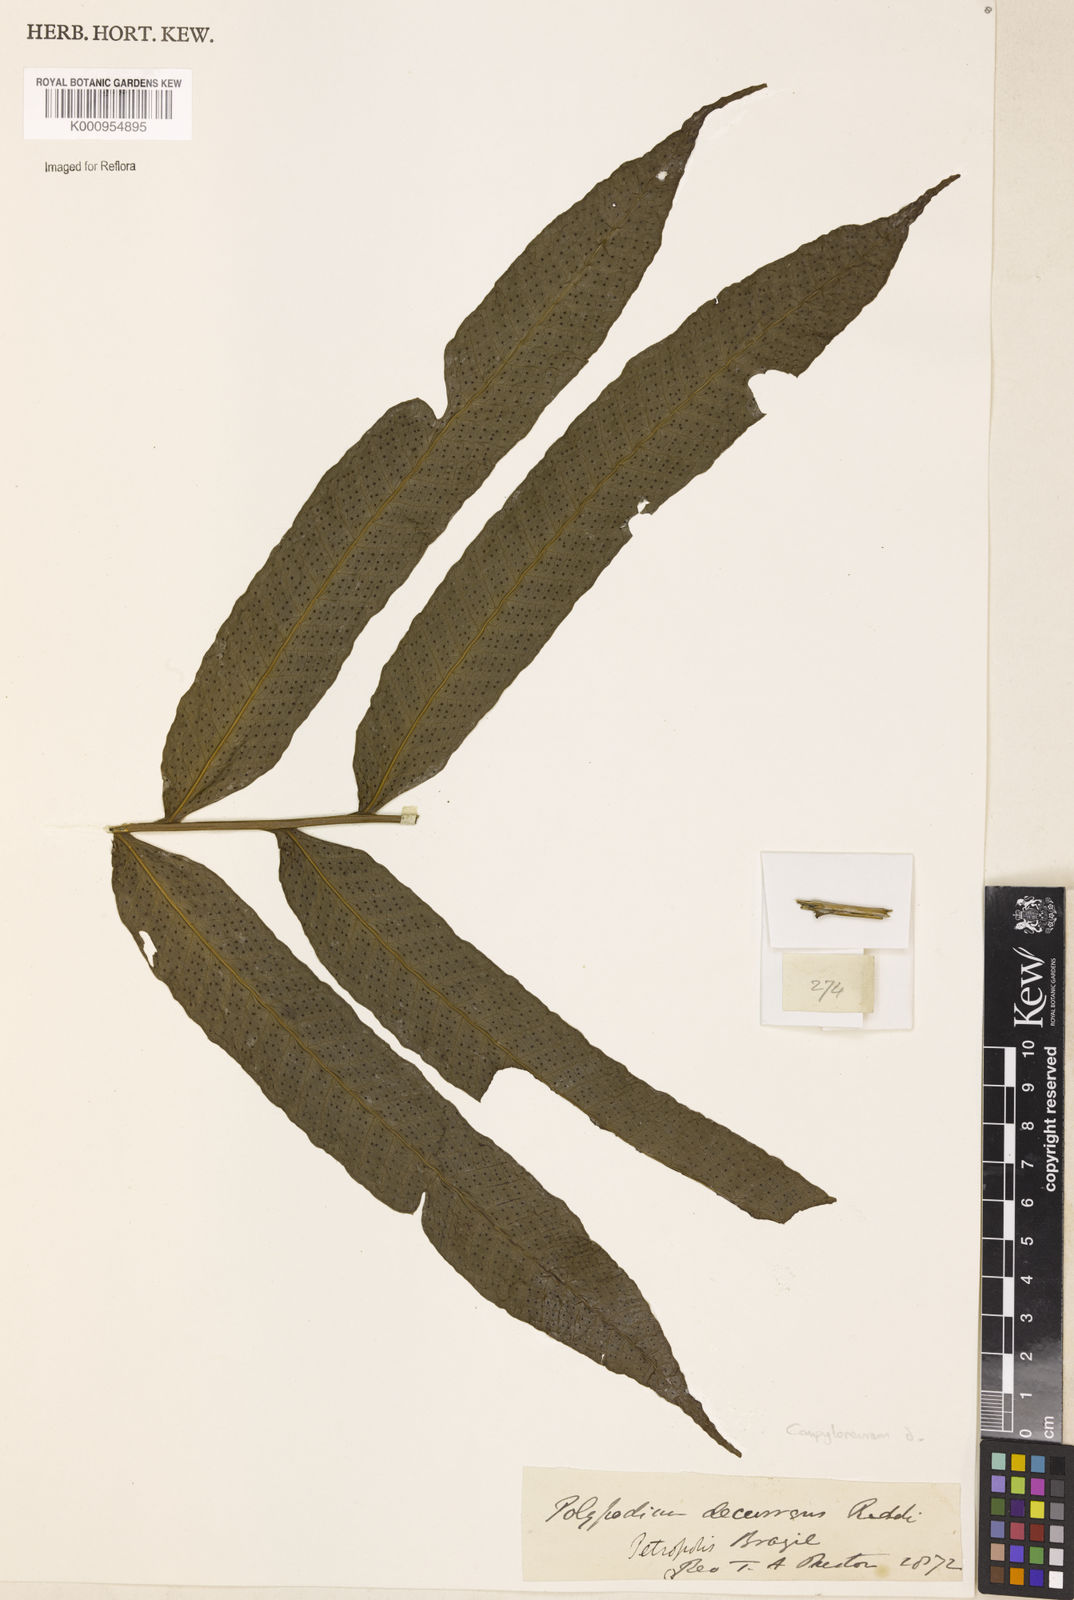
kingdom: Plantae
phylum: Tracheophyta
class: Polypodiopsida
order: Polypodiales
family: Polypodiaceae
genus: Campyloneurum
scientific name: Campyloneurum decurrens
